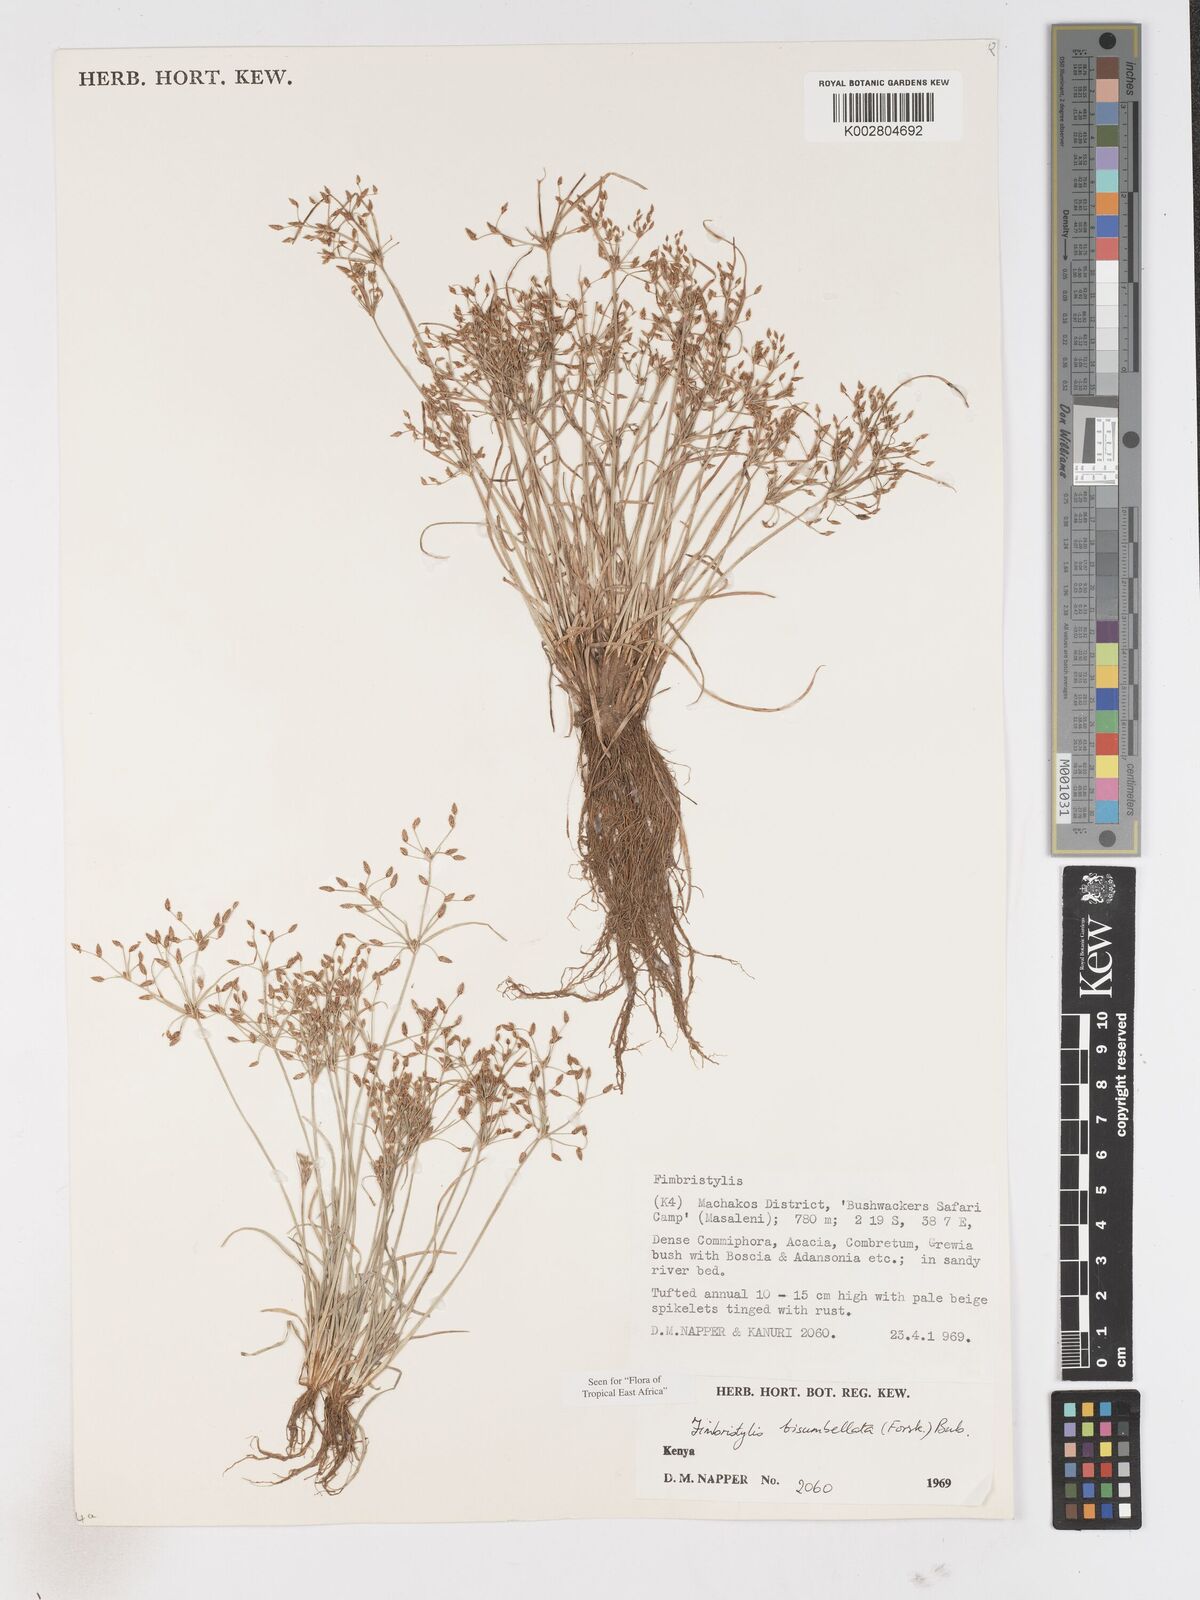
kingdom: Plantae
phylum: Tracheophyta
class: Liliopsida
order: Poales
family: Cyperaceae
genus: Fimbristylis
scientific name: Fimbristylis bisumbellata
